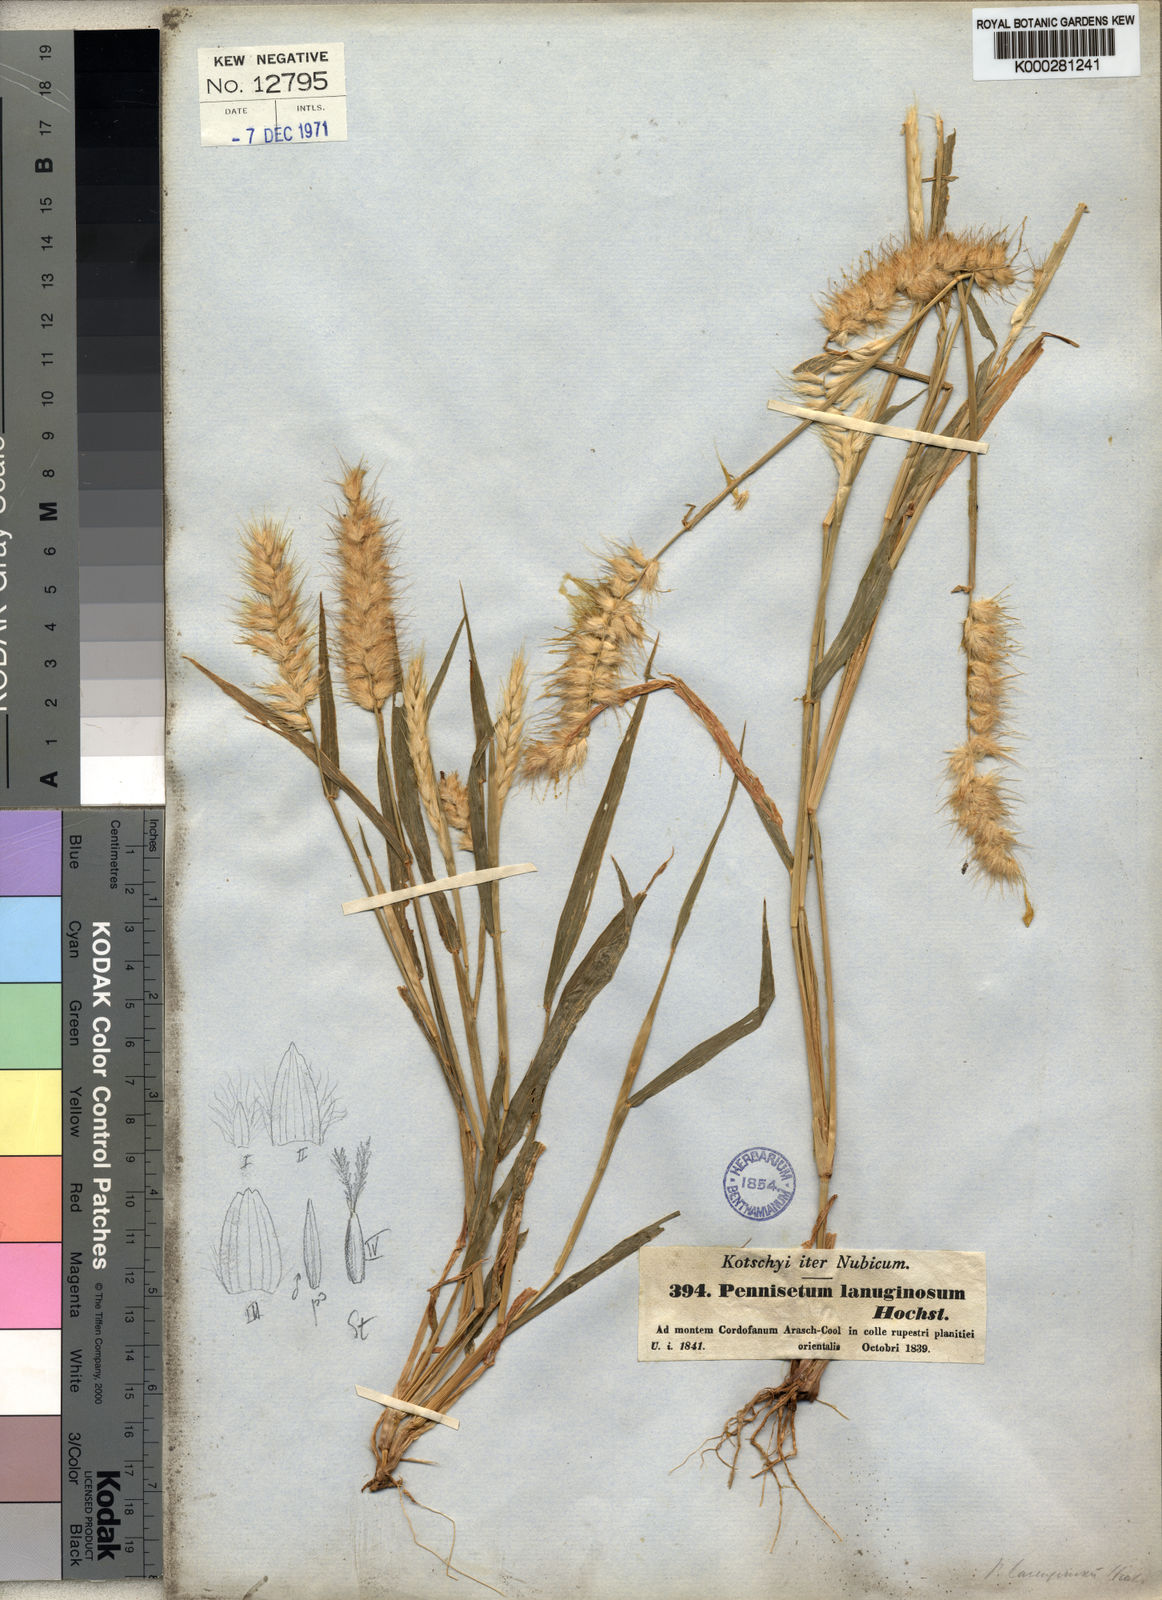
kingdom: Plantae
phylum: Tracheophyta
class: Liliopsida
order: Poales
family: Poaceae
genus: Cenchrus
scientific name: Cenchrus pedicellatus
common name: Hairy fountain grass
